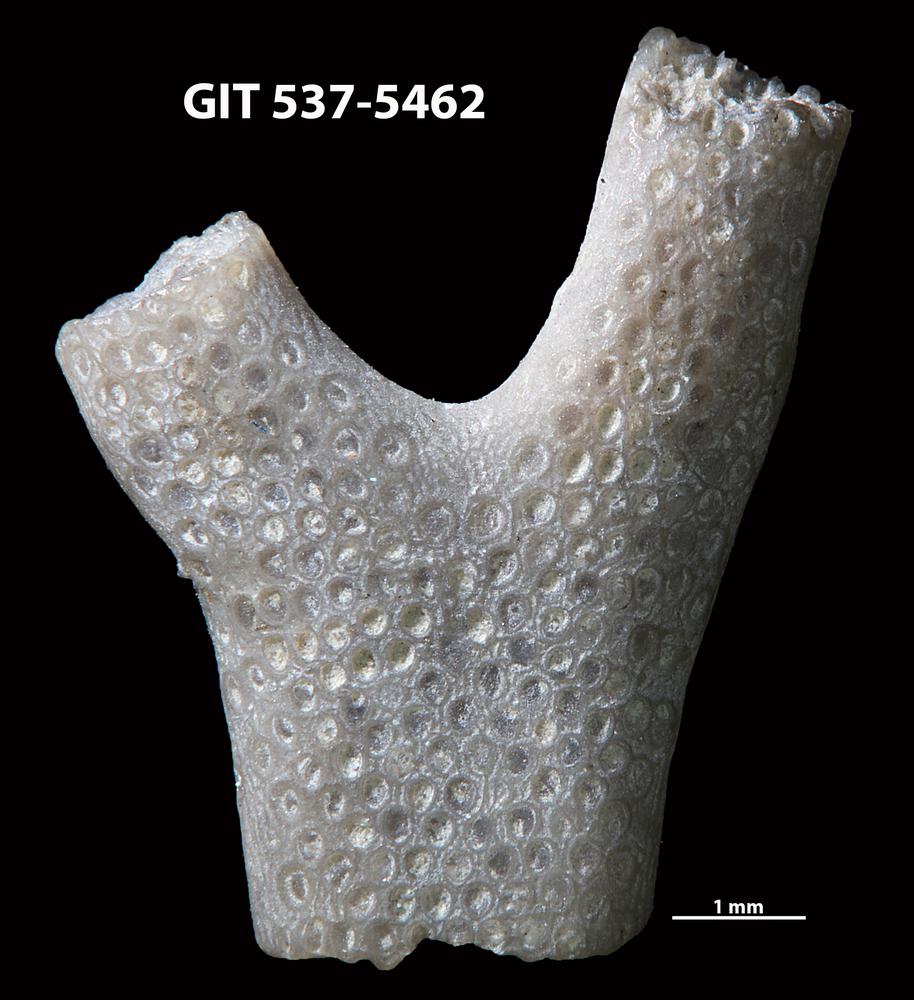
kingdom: Animalia
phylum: Bryozoa
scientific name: Bryozoa
